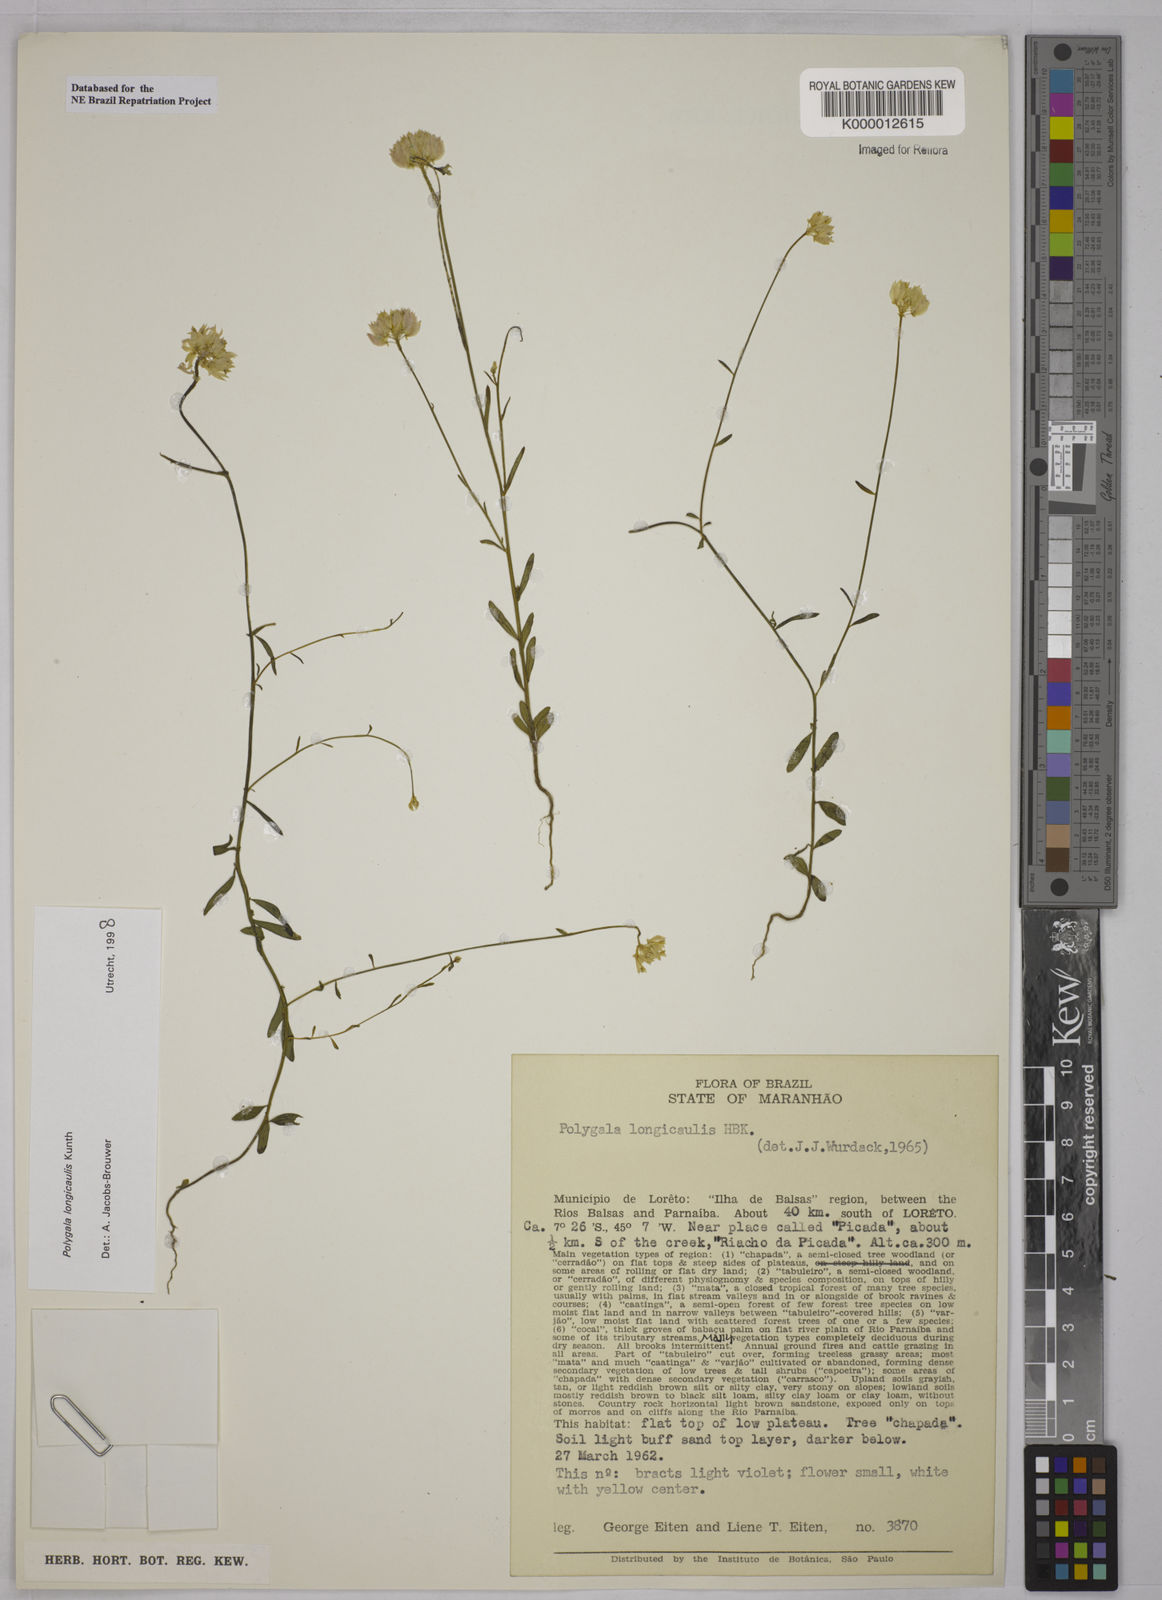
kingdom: Plantae
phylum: Tracheophyta
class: Magnoliopsida
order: Fabales
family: Polygalaceae
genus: Polygala
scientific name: Polygala longicaulis
